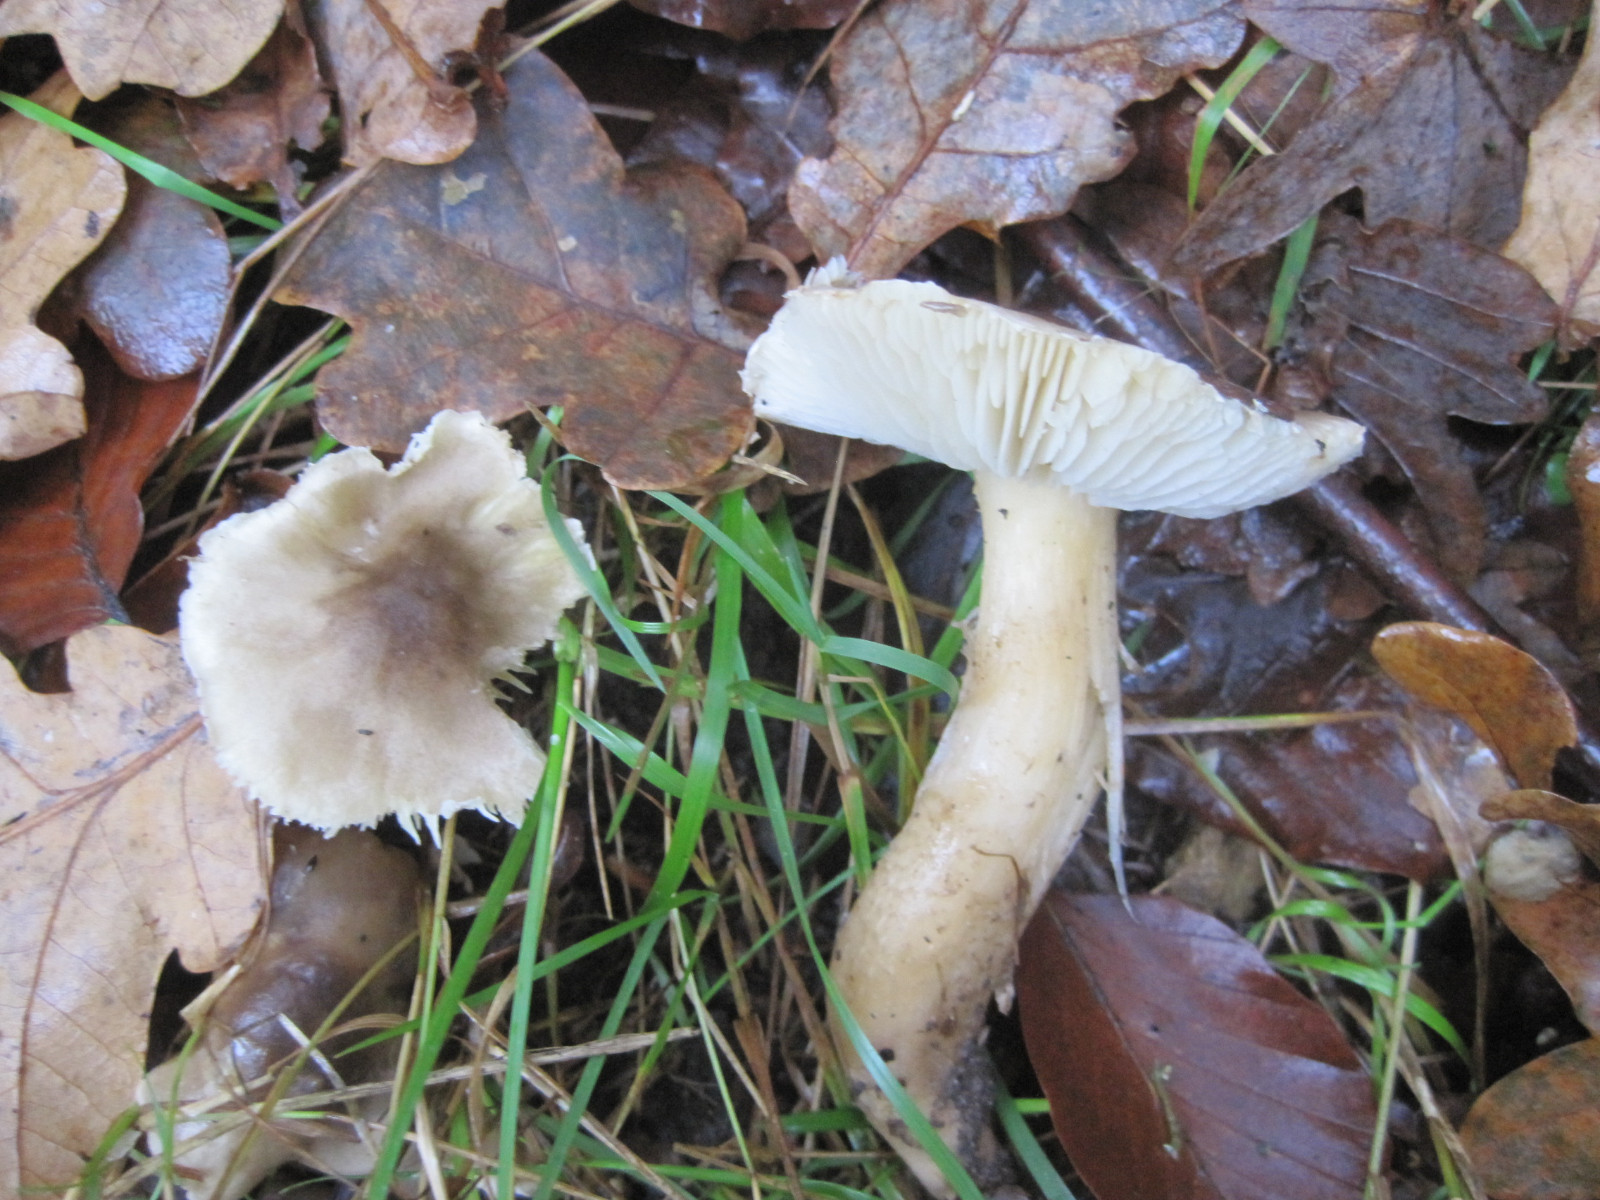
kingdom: Fungi
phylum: Basidiomycota
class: Agaricomycetes
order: Agaricales
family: Tricholomataceae
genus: Tricholoma
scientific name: Tricholoma saponaceum
